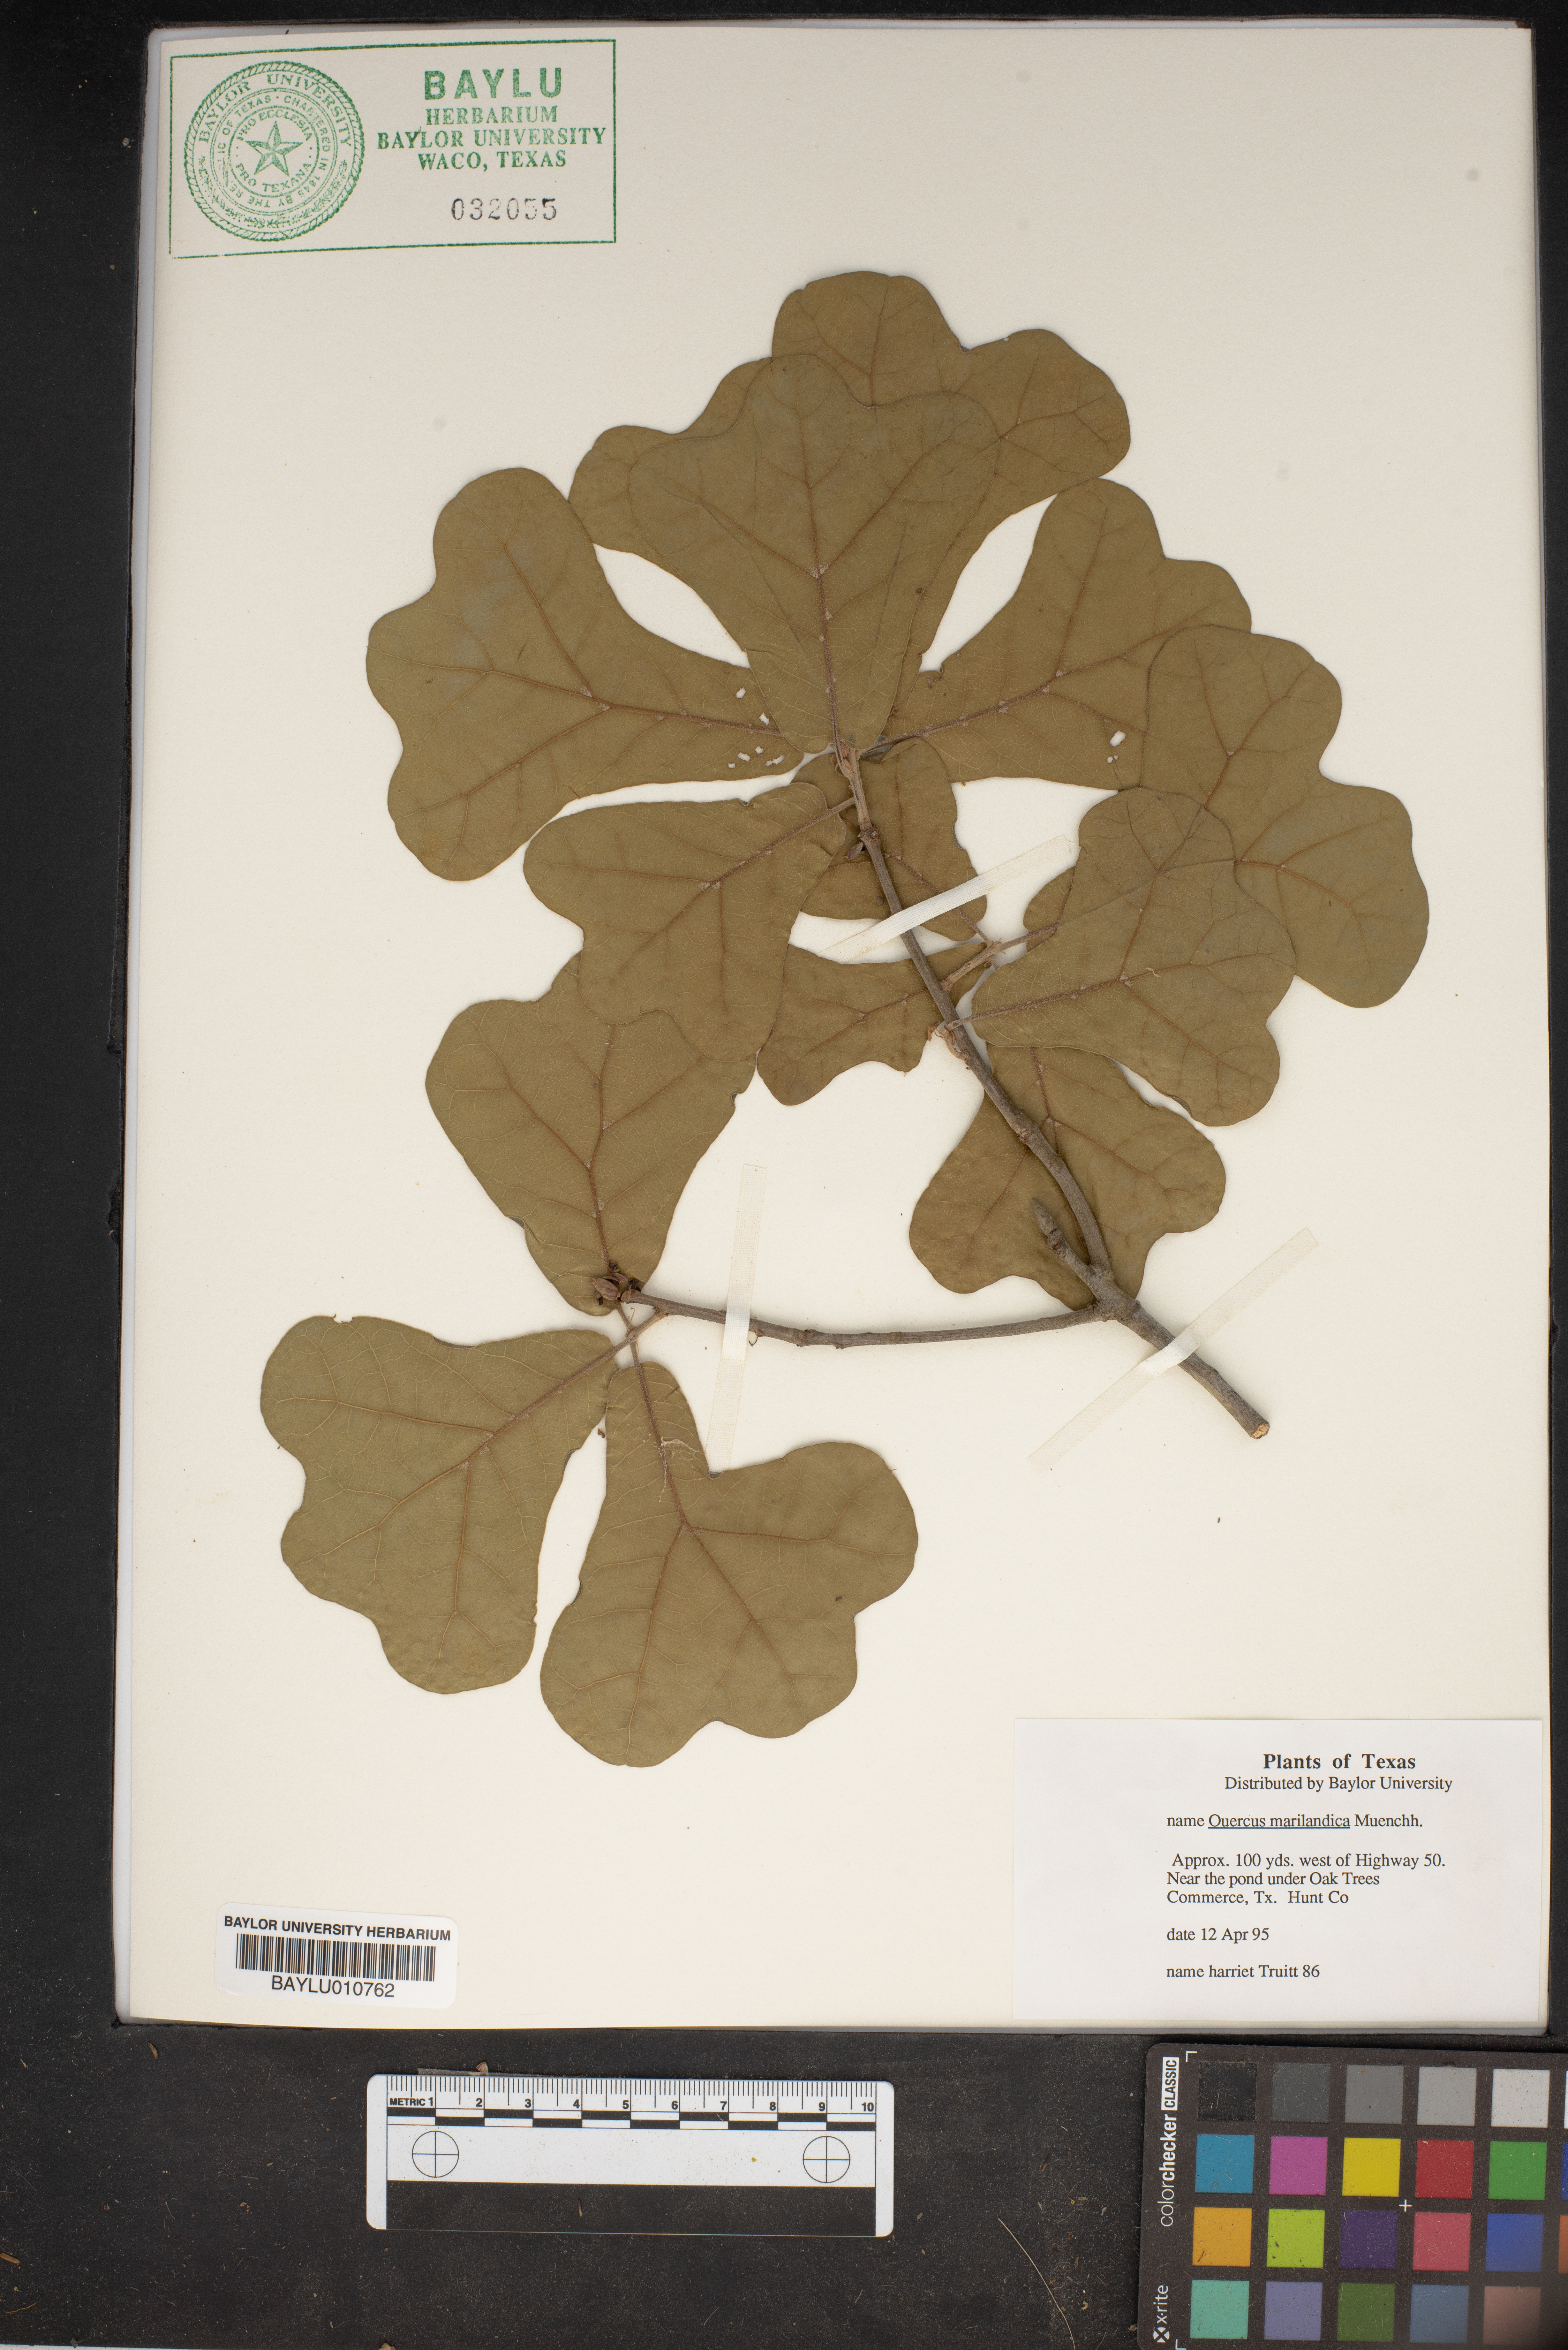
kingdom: Plantae
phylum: Tracheophyta
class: Magnoliopsida
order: Fagales
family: Fagaceae
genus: Quercus
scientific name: Quercus marilandica
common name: Blackjack oak
